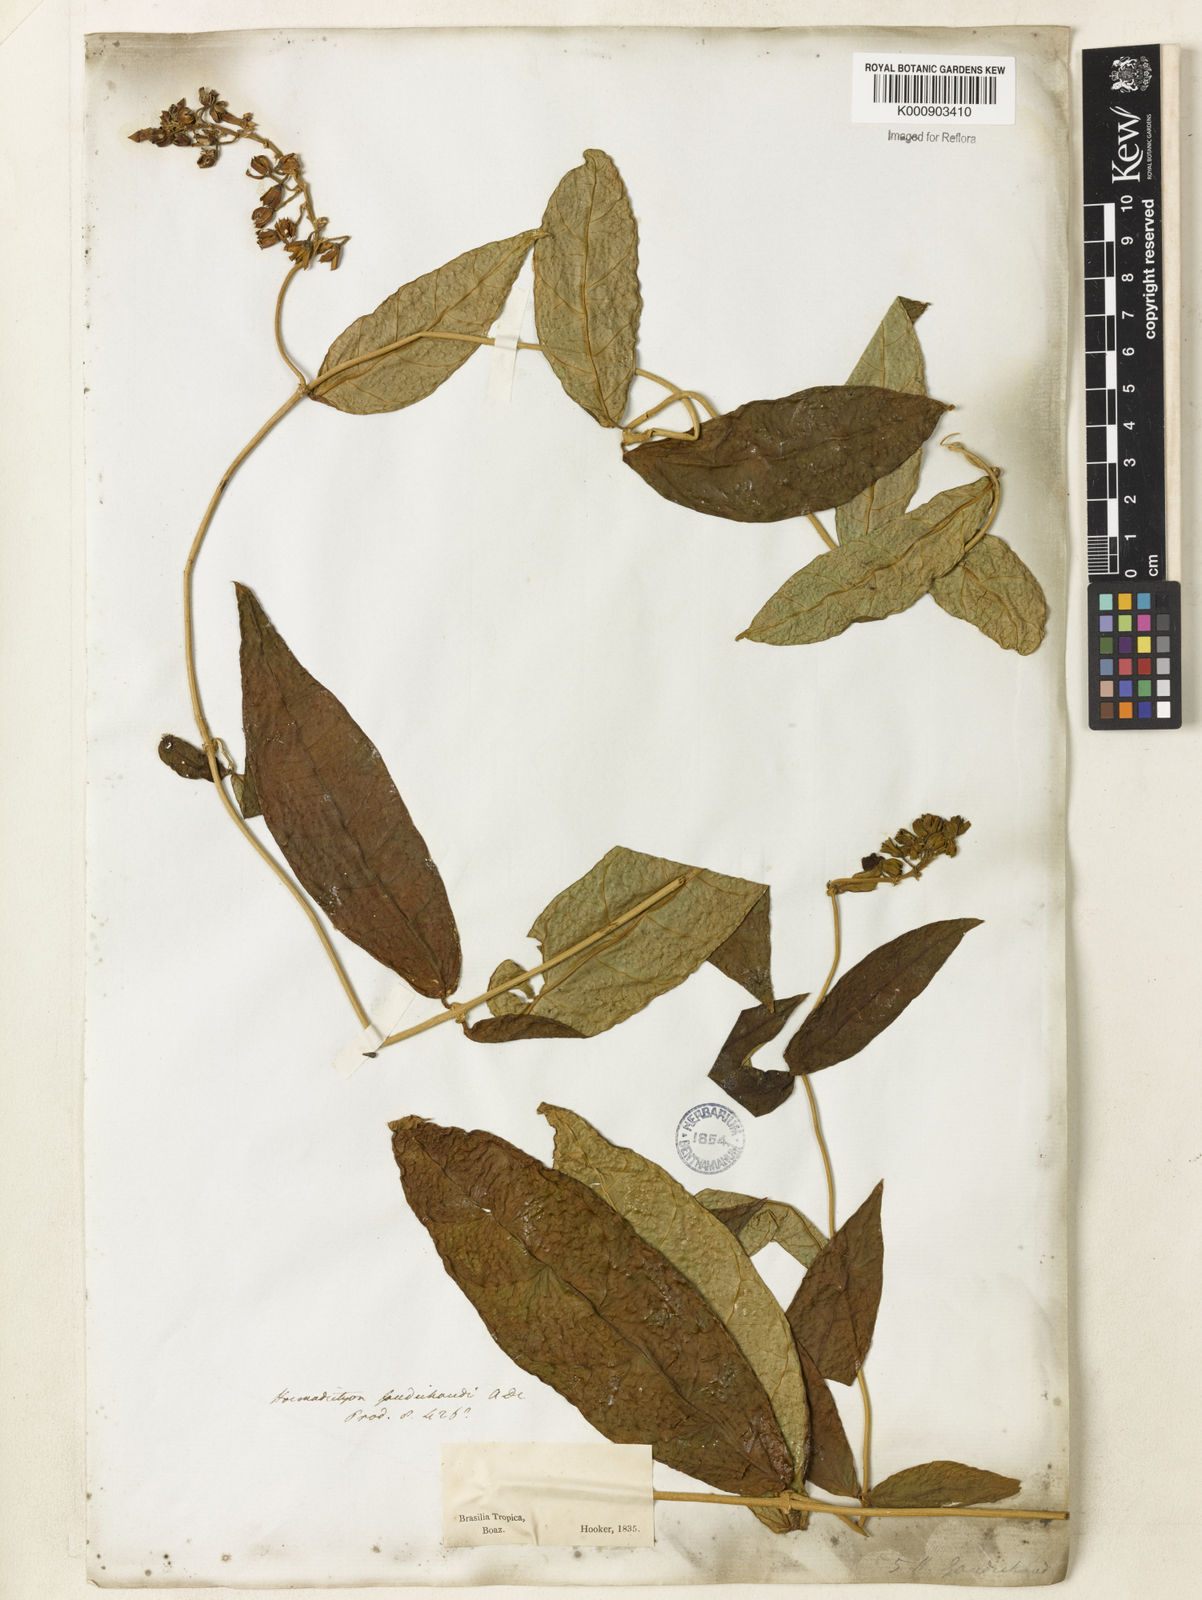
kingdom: Plantae
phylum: Tracheophyta
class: Magnoliopsida
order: Gentianales
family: Apocynaceae
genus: Prestonia
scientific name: Prestonia denticulata
